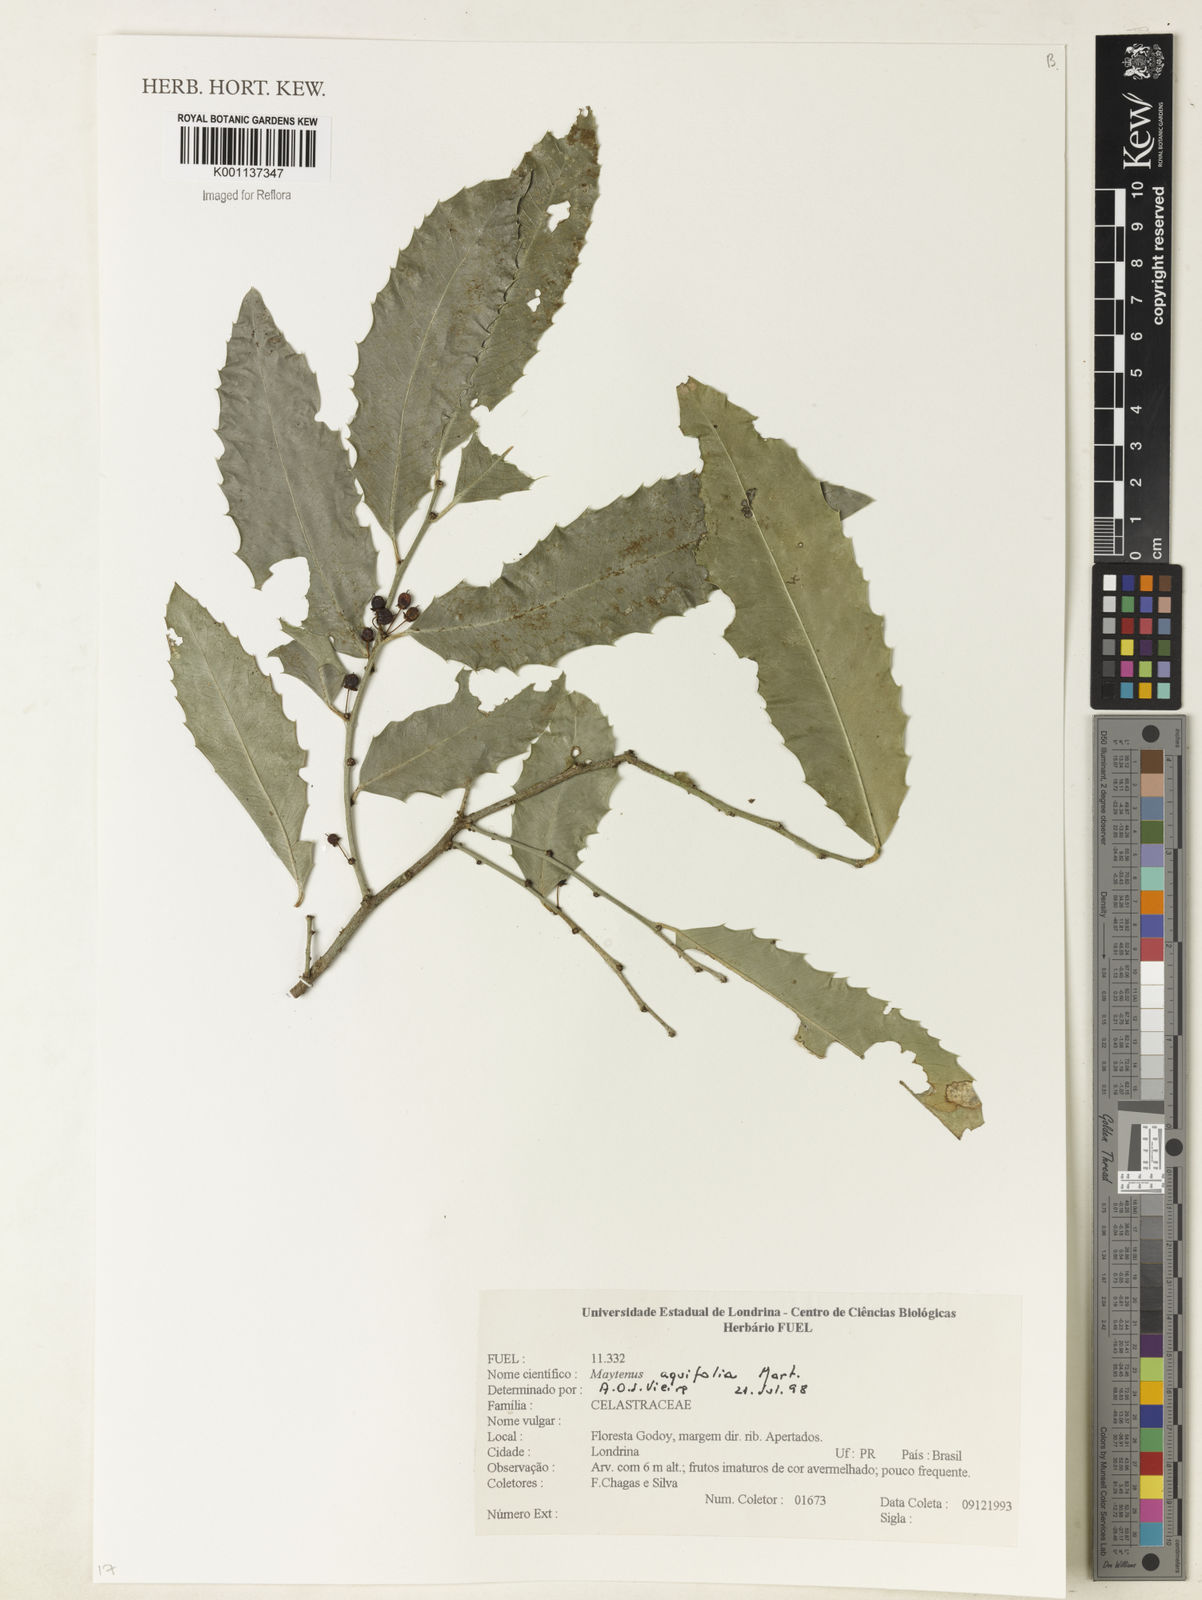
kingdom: Plantae
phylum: Tracheophyta
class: Magnoliopsida
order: Celastrales
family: Celastraceae
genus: Monteverdia
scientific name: Monteverdia aquifolium
